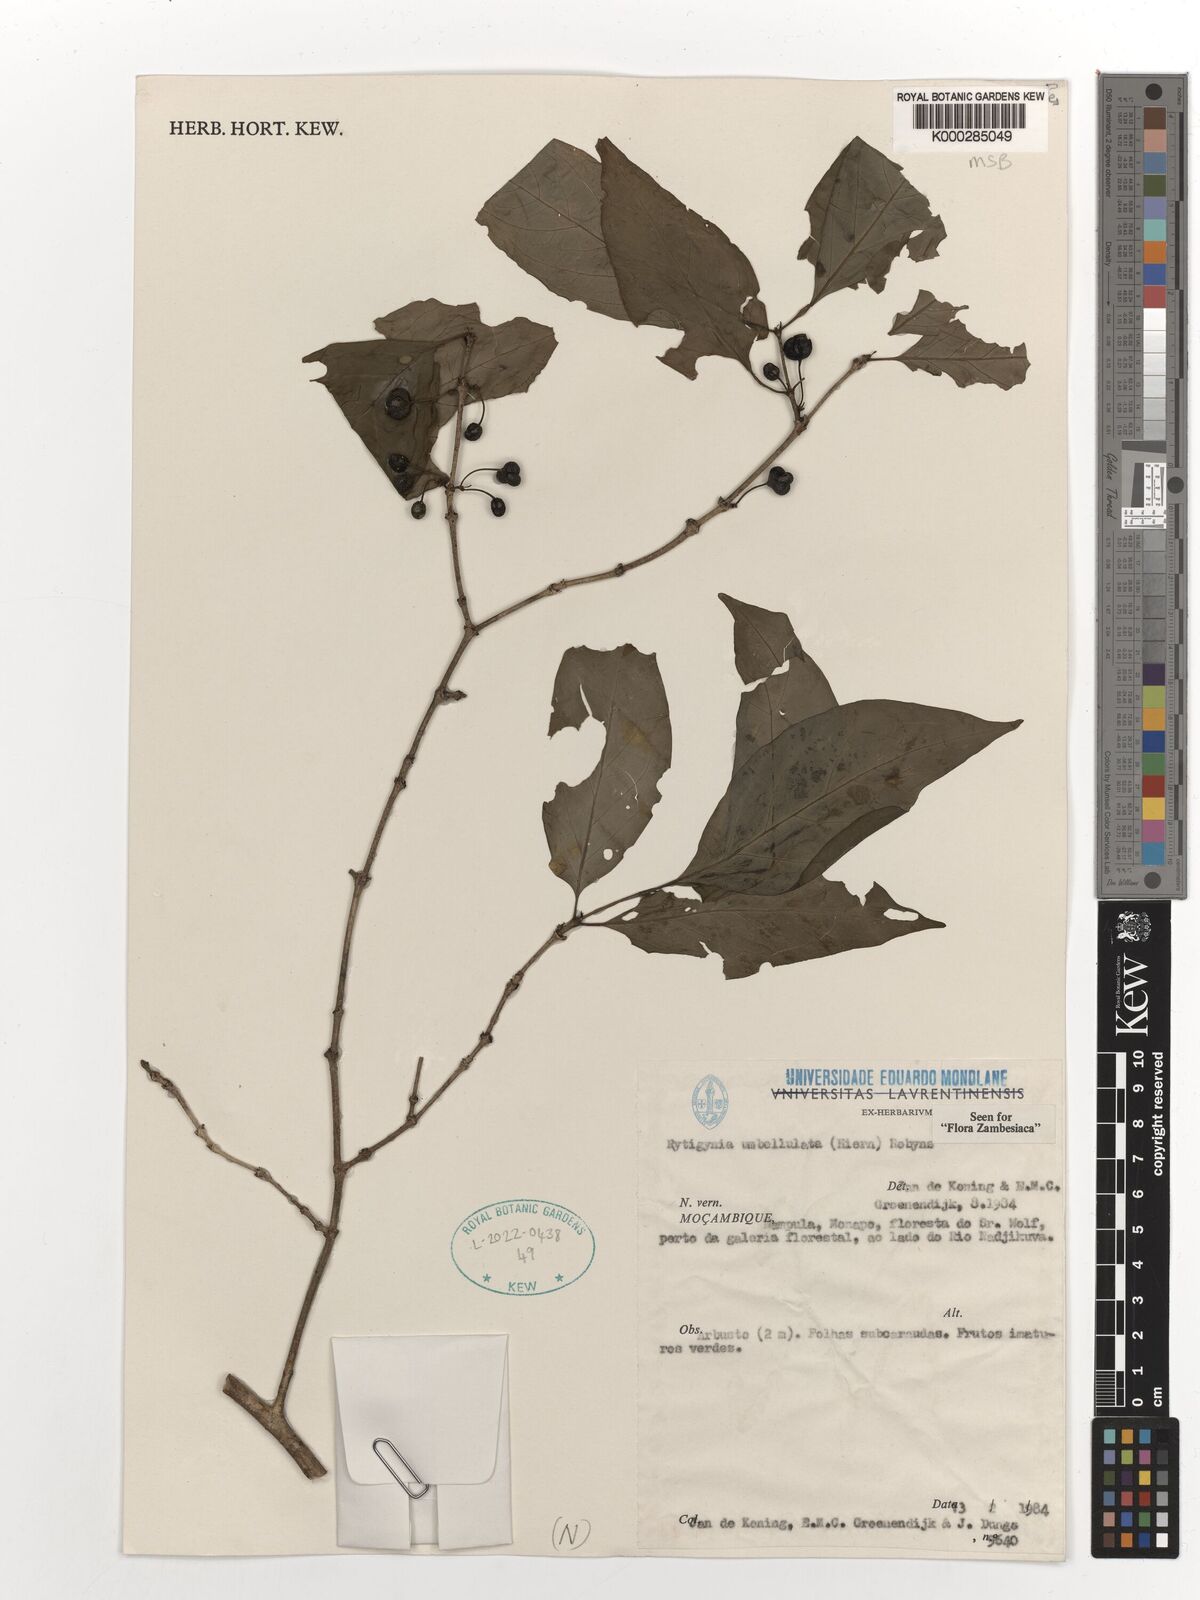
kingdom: Plantae
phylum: Tracheophyta
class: Magnoliopsida
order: Gentianales
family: Rubiaceae
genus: Rytigynia
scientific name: Rytigynia umbellulata
